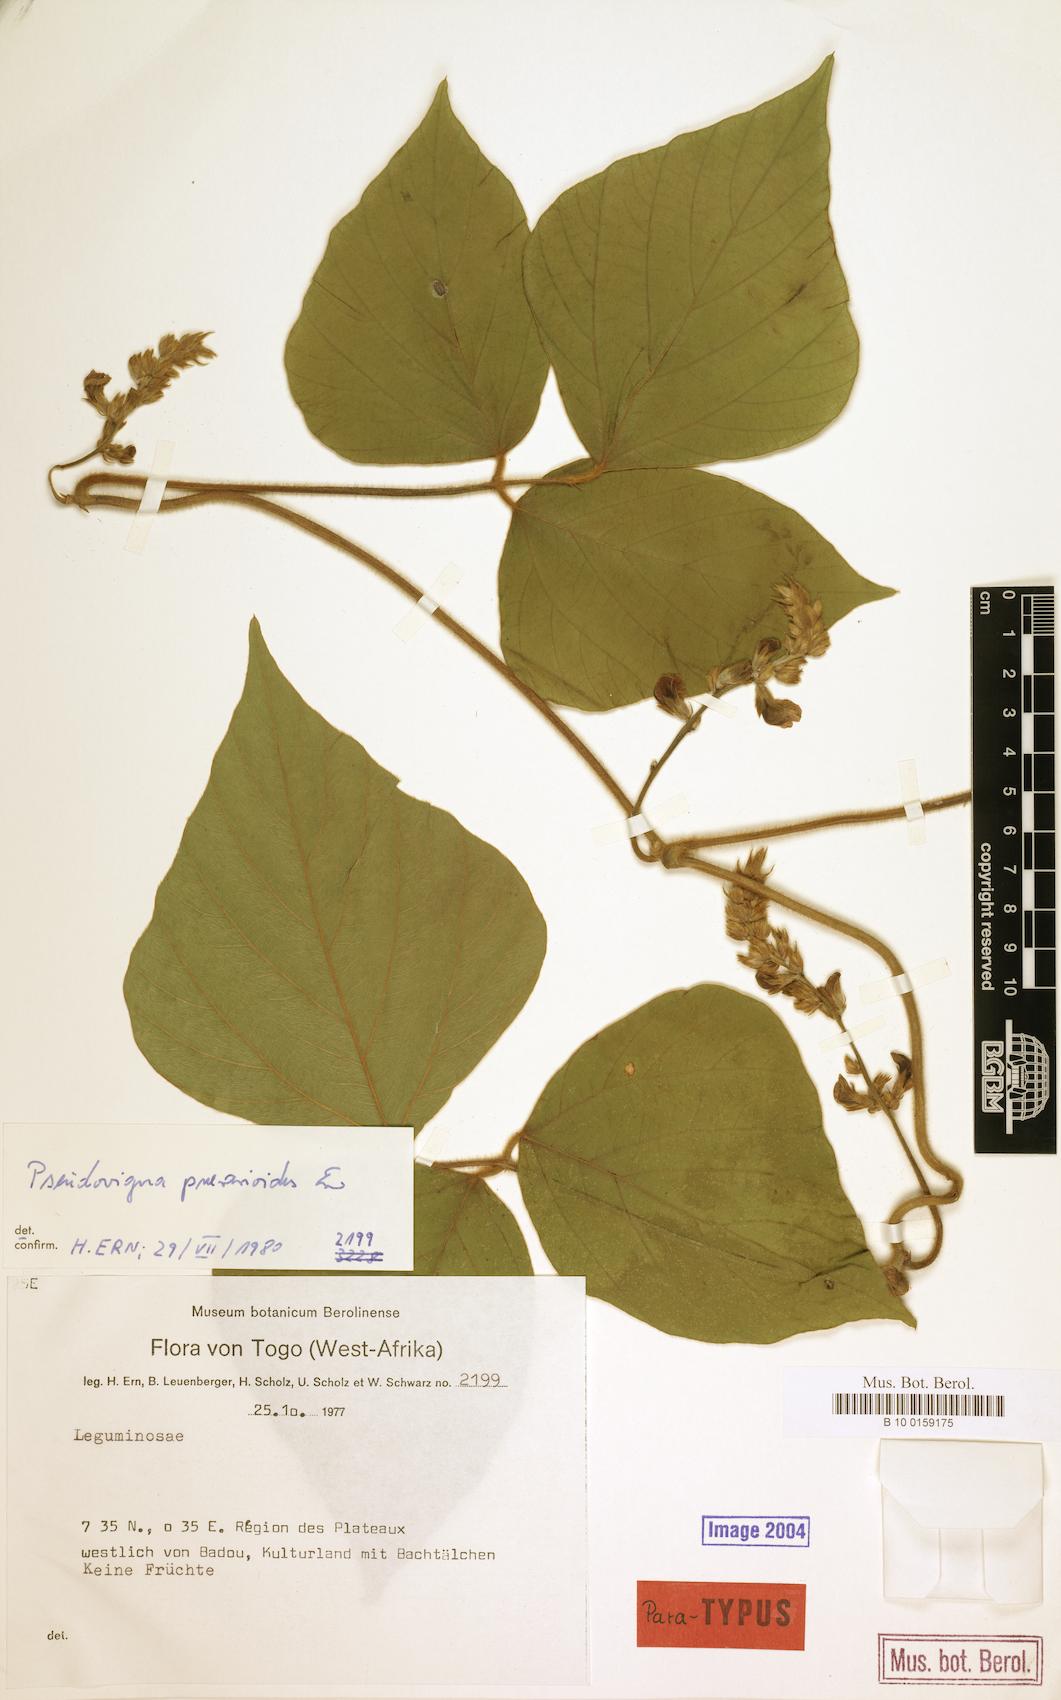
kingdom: Plantae
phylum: Tracheophyta
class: Magnoliopsida
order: Fabales
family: Fabaceae
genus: Pseudovigna
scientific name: Pseudovigna puerarioides
